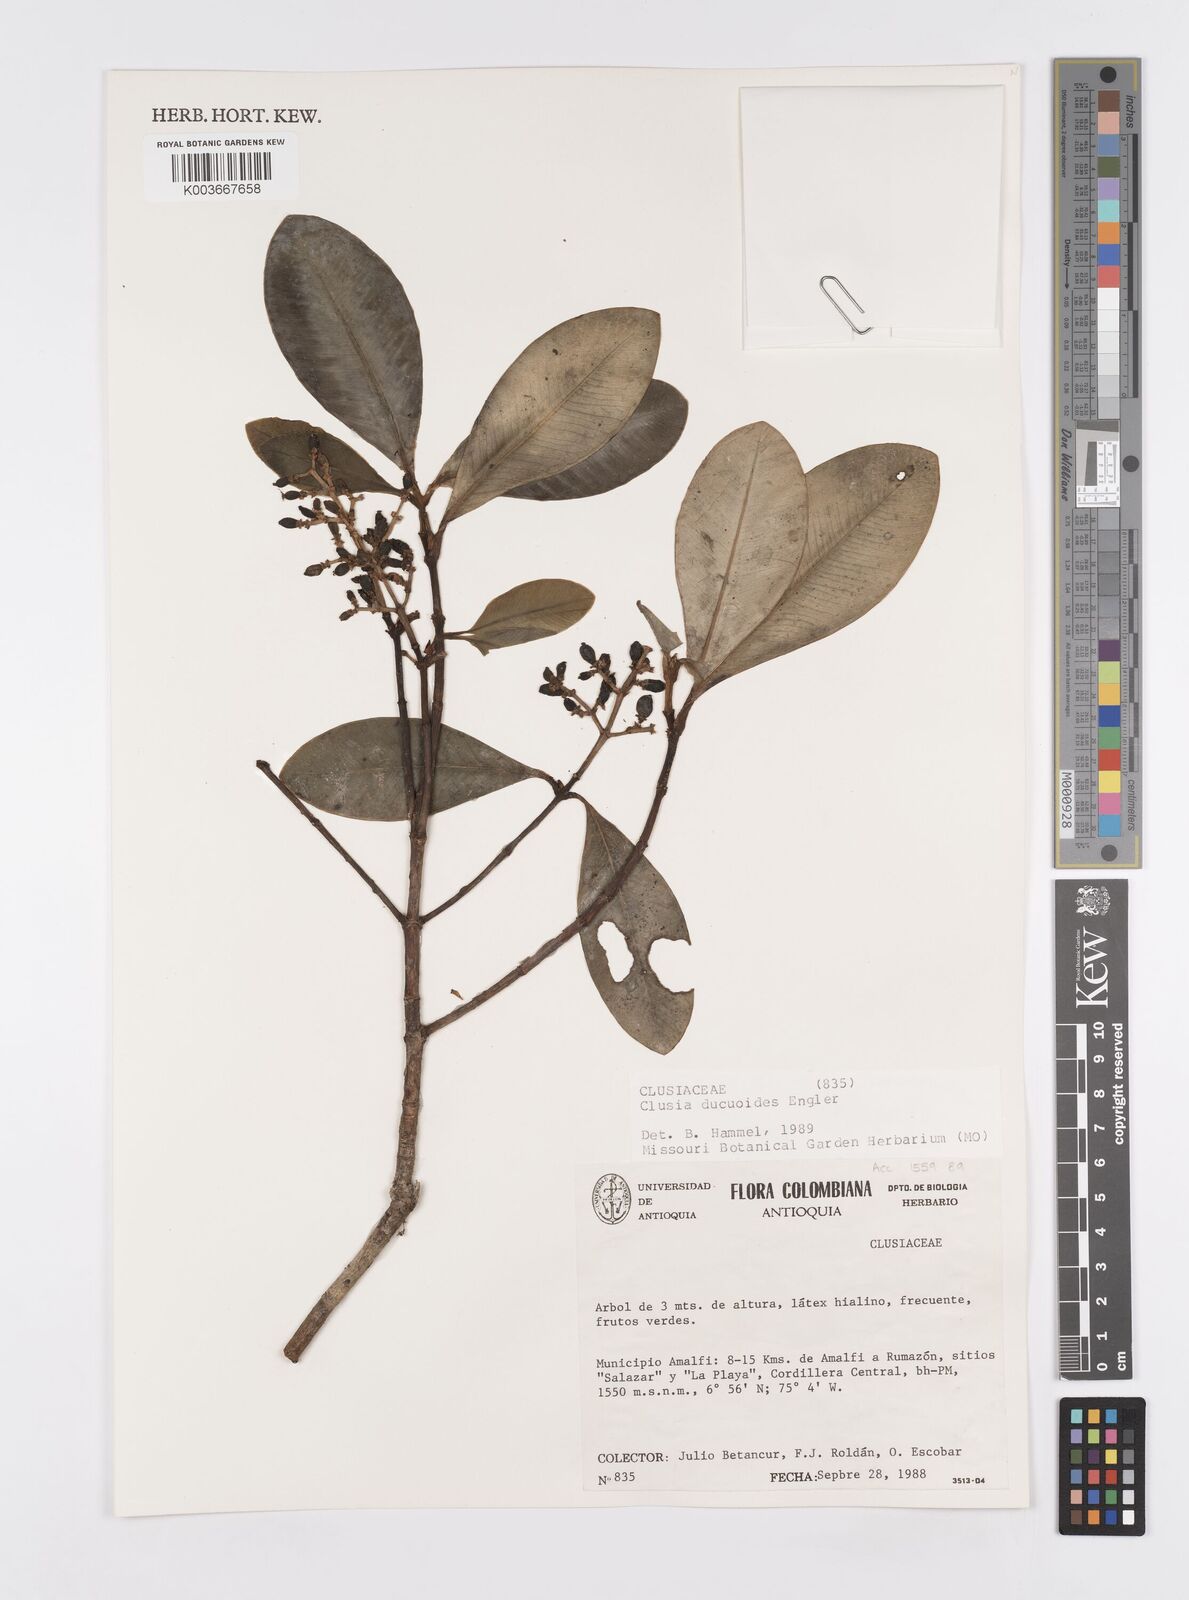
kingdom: Plantae
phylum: Tracheophyta
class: Magnoliopsida
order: Malpighiales
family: Clusiaceae
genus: Clusia
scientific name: Clusia ducuoides
